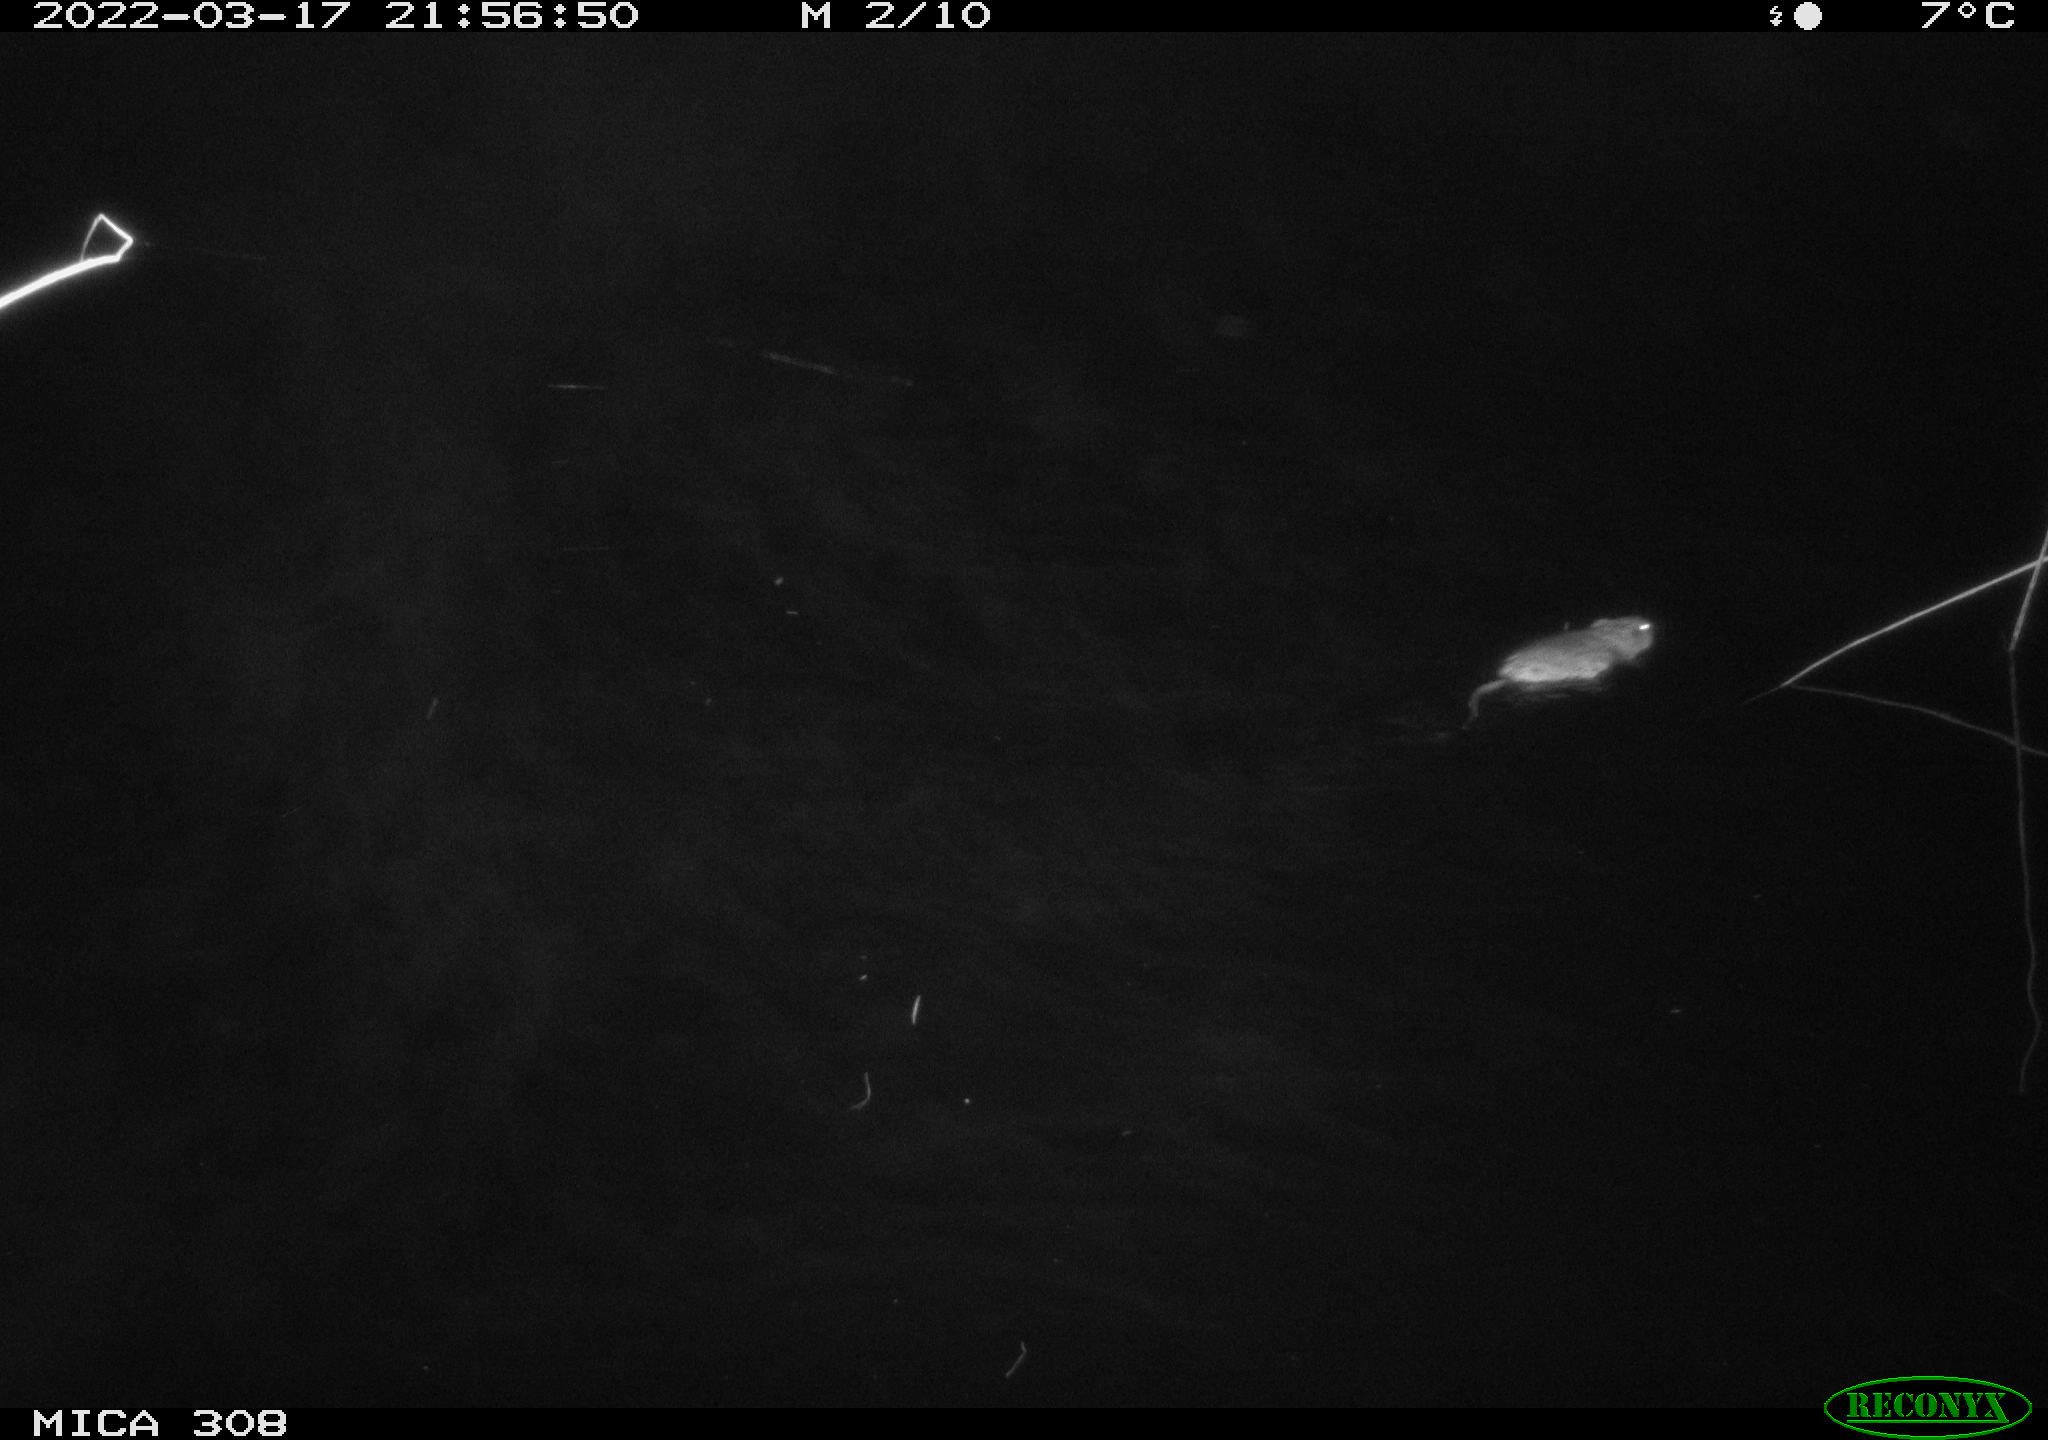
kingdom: Animalia
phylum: Chordata
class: Mammalia
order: Rodentia
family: Cricetidae
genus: Ondatra
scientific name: Ondatra zibethicus
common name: Muskrat
